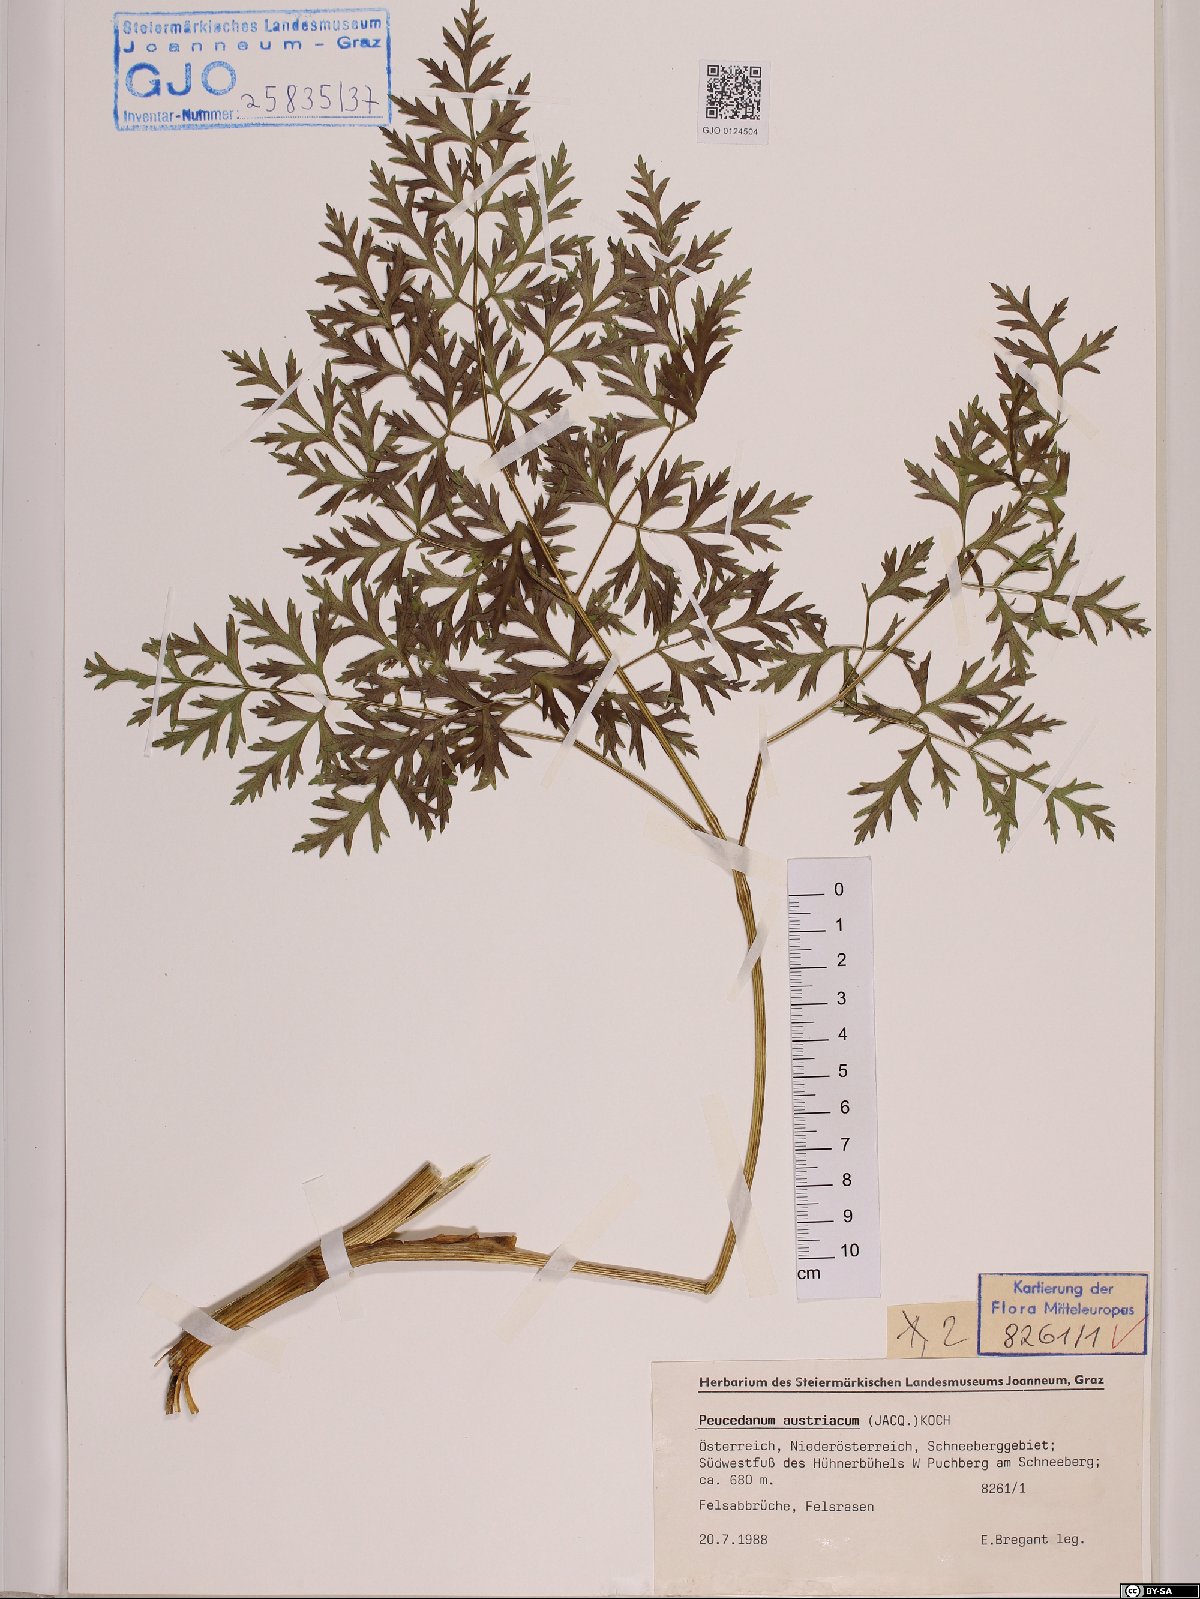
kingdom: Plantae
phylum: Tracheophyta
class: Magnoliopsida
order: Apiales
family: Apiaceae
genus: Peucedanum
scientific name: Peucedanum austriacum
